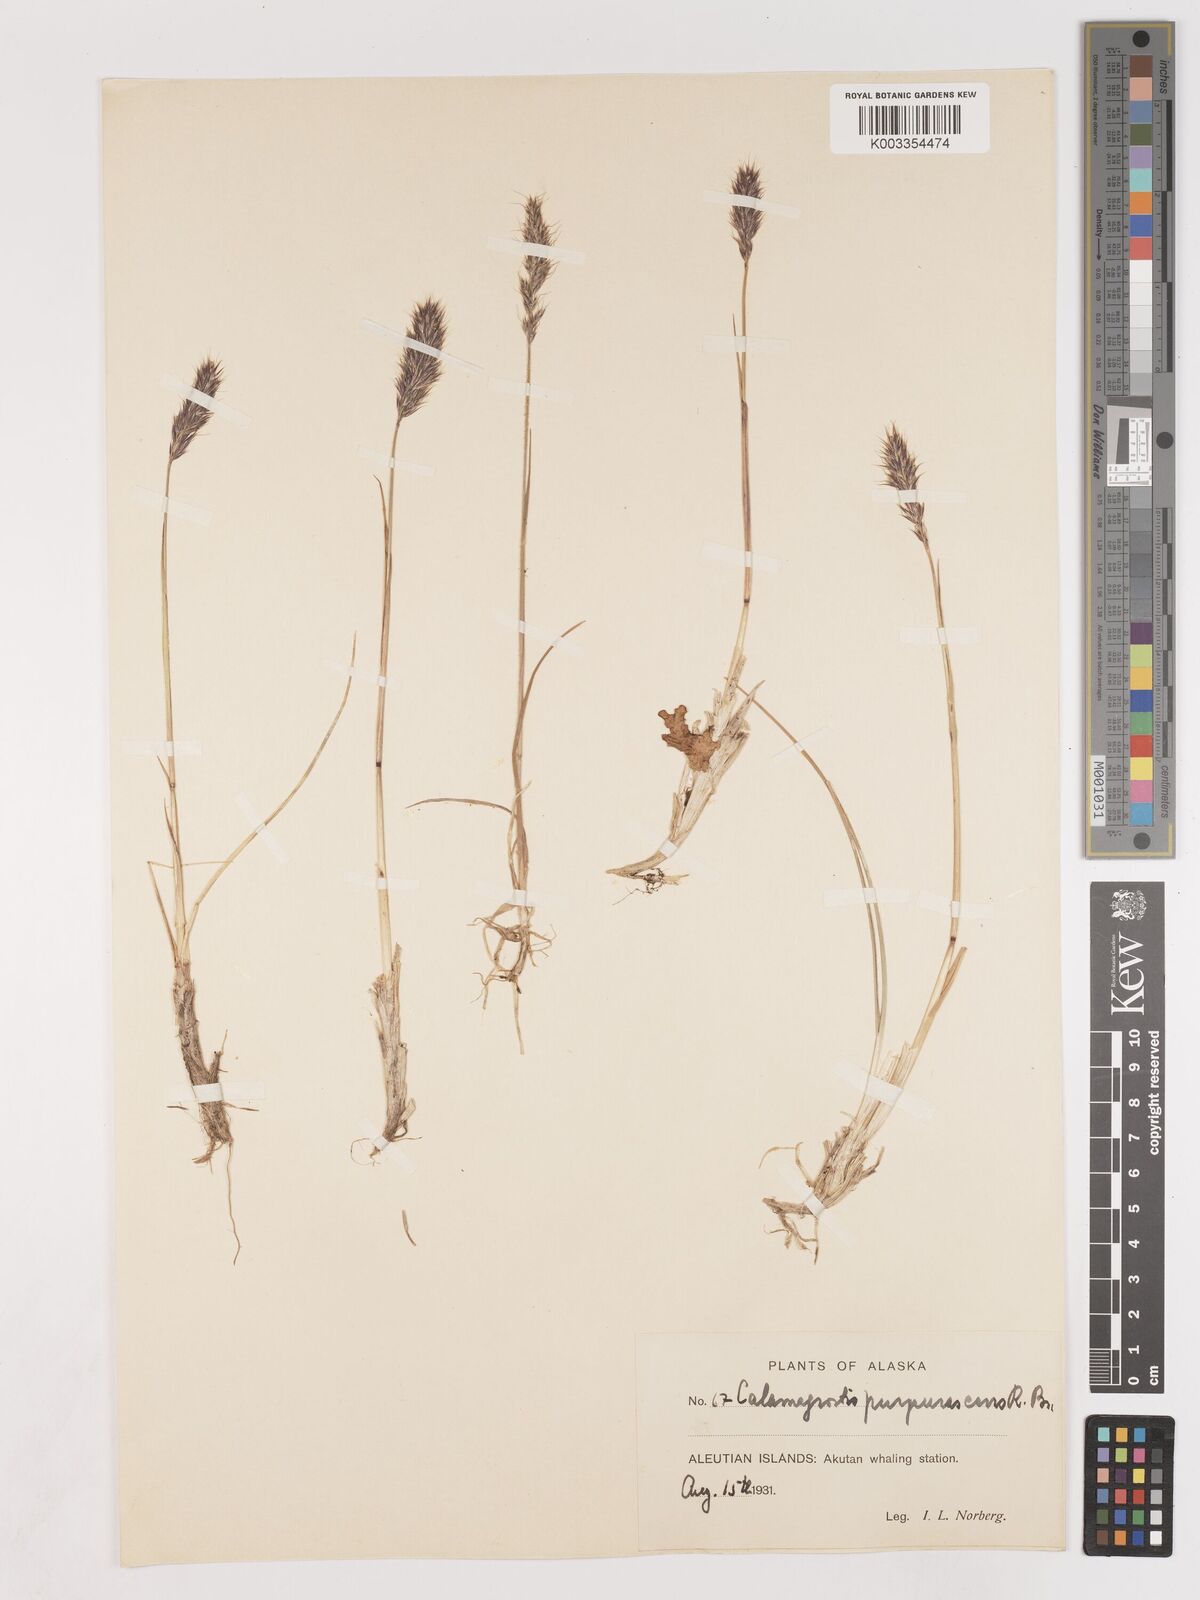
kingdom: Plantae
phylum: Tracheophyta
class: Liliopsida
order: Poales
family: Poaceae
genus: Calamagrostis
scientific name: Calamagrostis purpurascens
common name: Purple reedgrass
